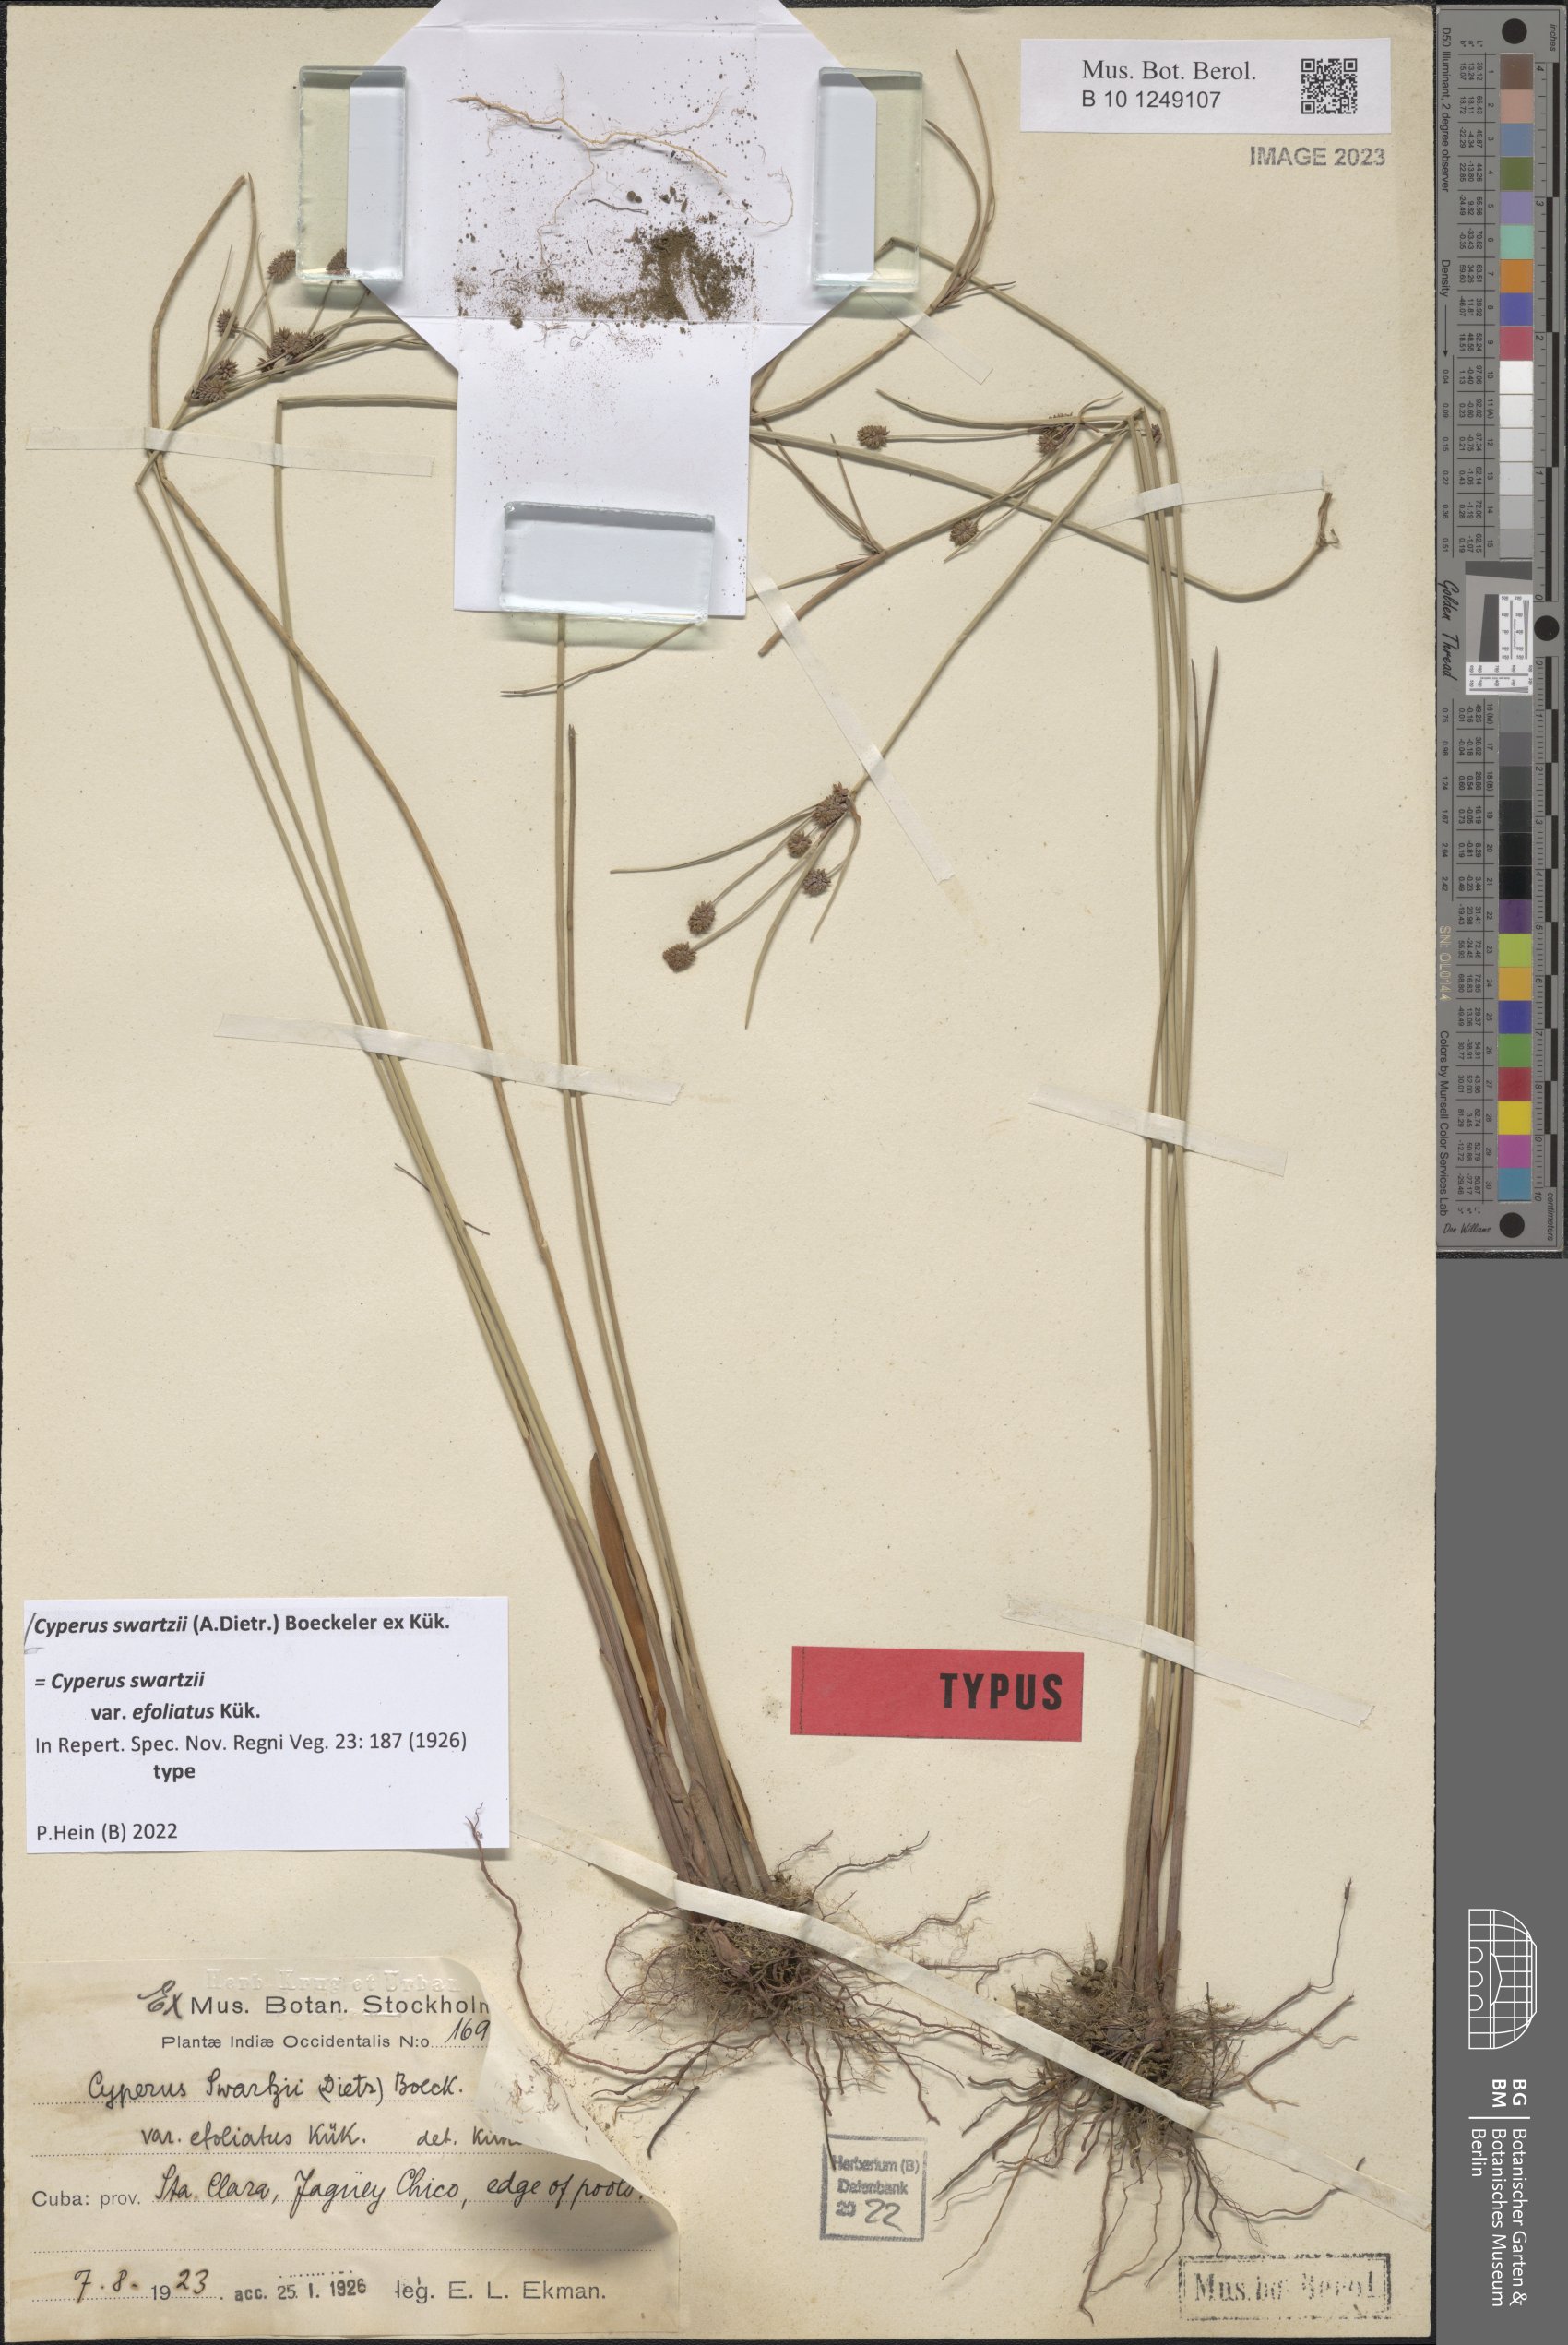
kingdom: Plantae
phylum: Tracheophyta
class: Liliopsida
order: Poales
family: Cyperaceae
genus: Cyperus
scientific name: Cyperus swartzii
